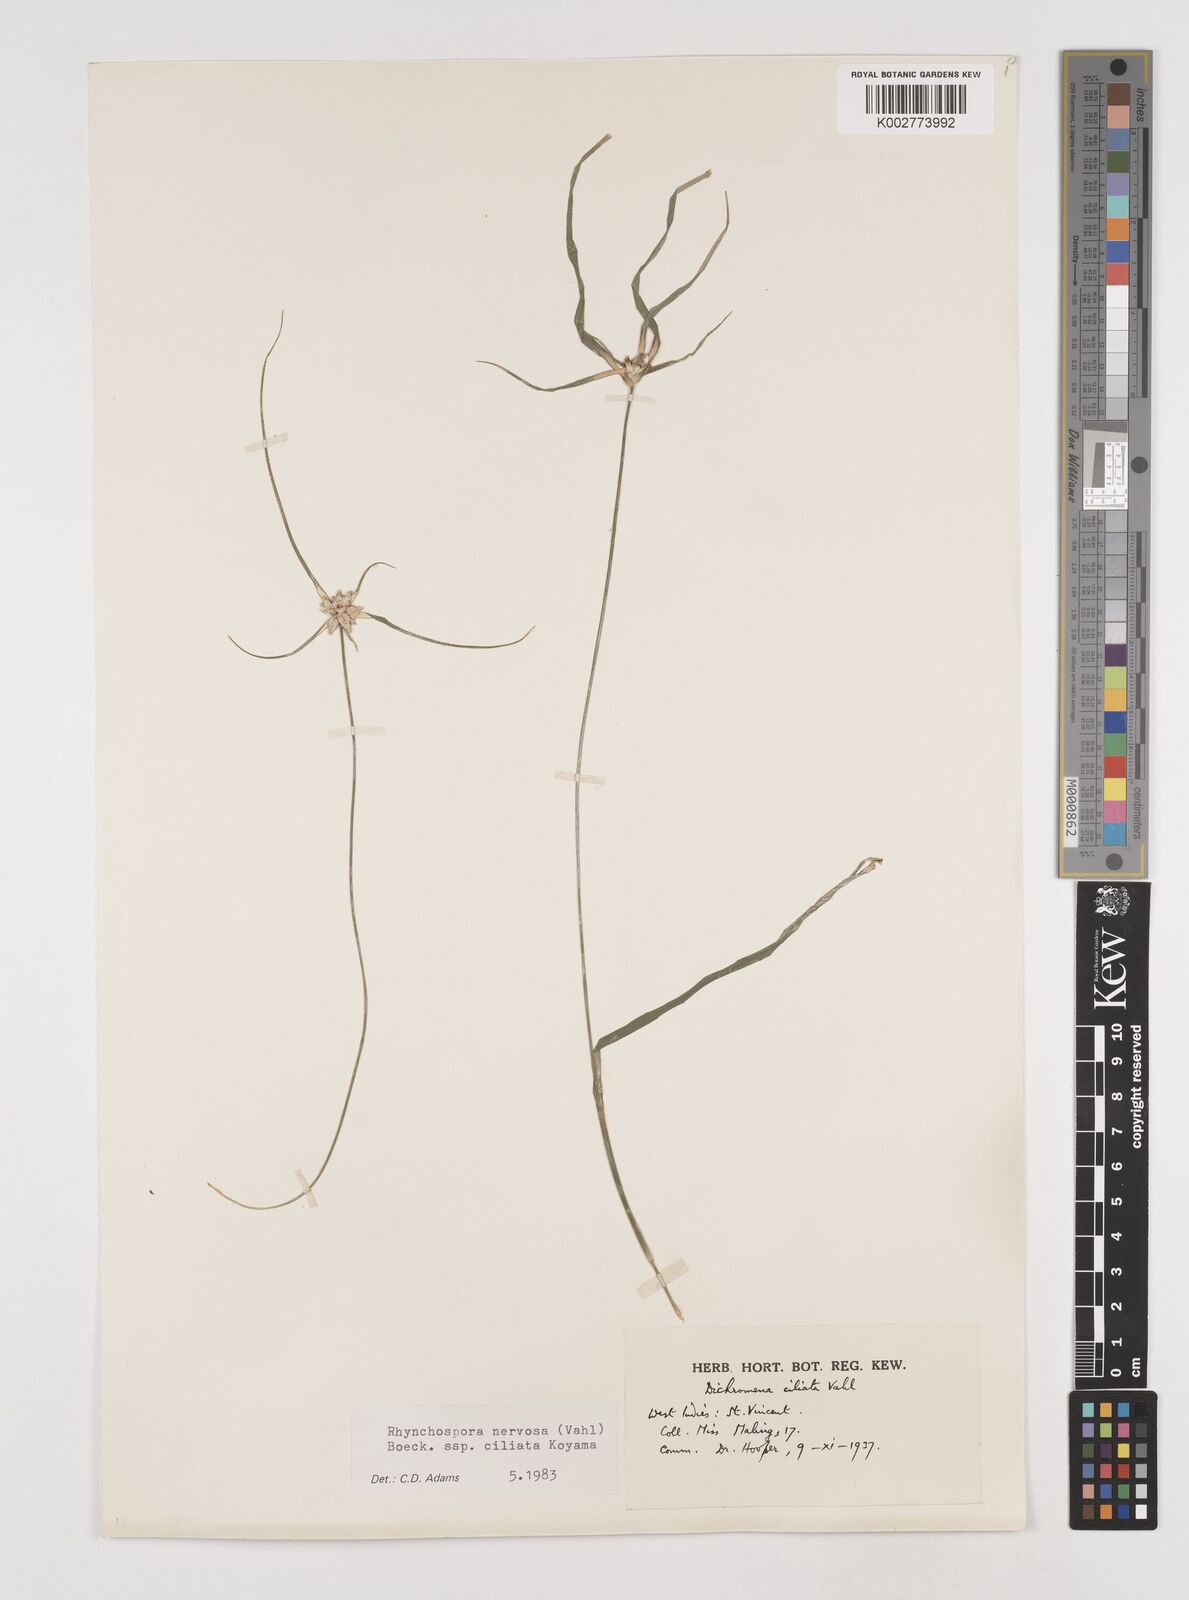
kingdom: Plantae
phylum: Tracheophyta
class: Liliopsida
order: Poales
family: Cyperaceae
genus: Rhynchospora
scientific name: Rhynchospora pura
